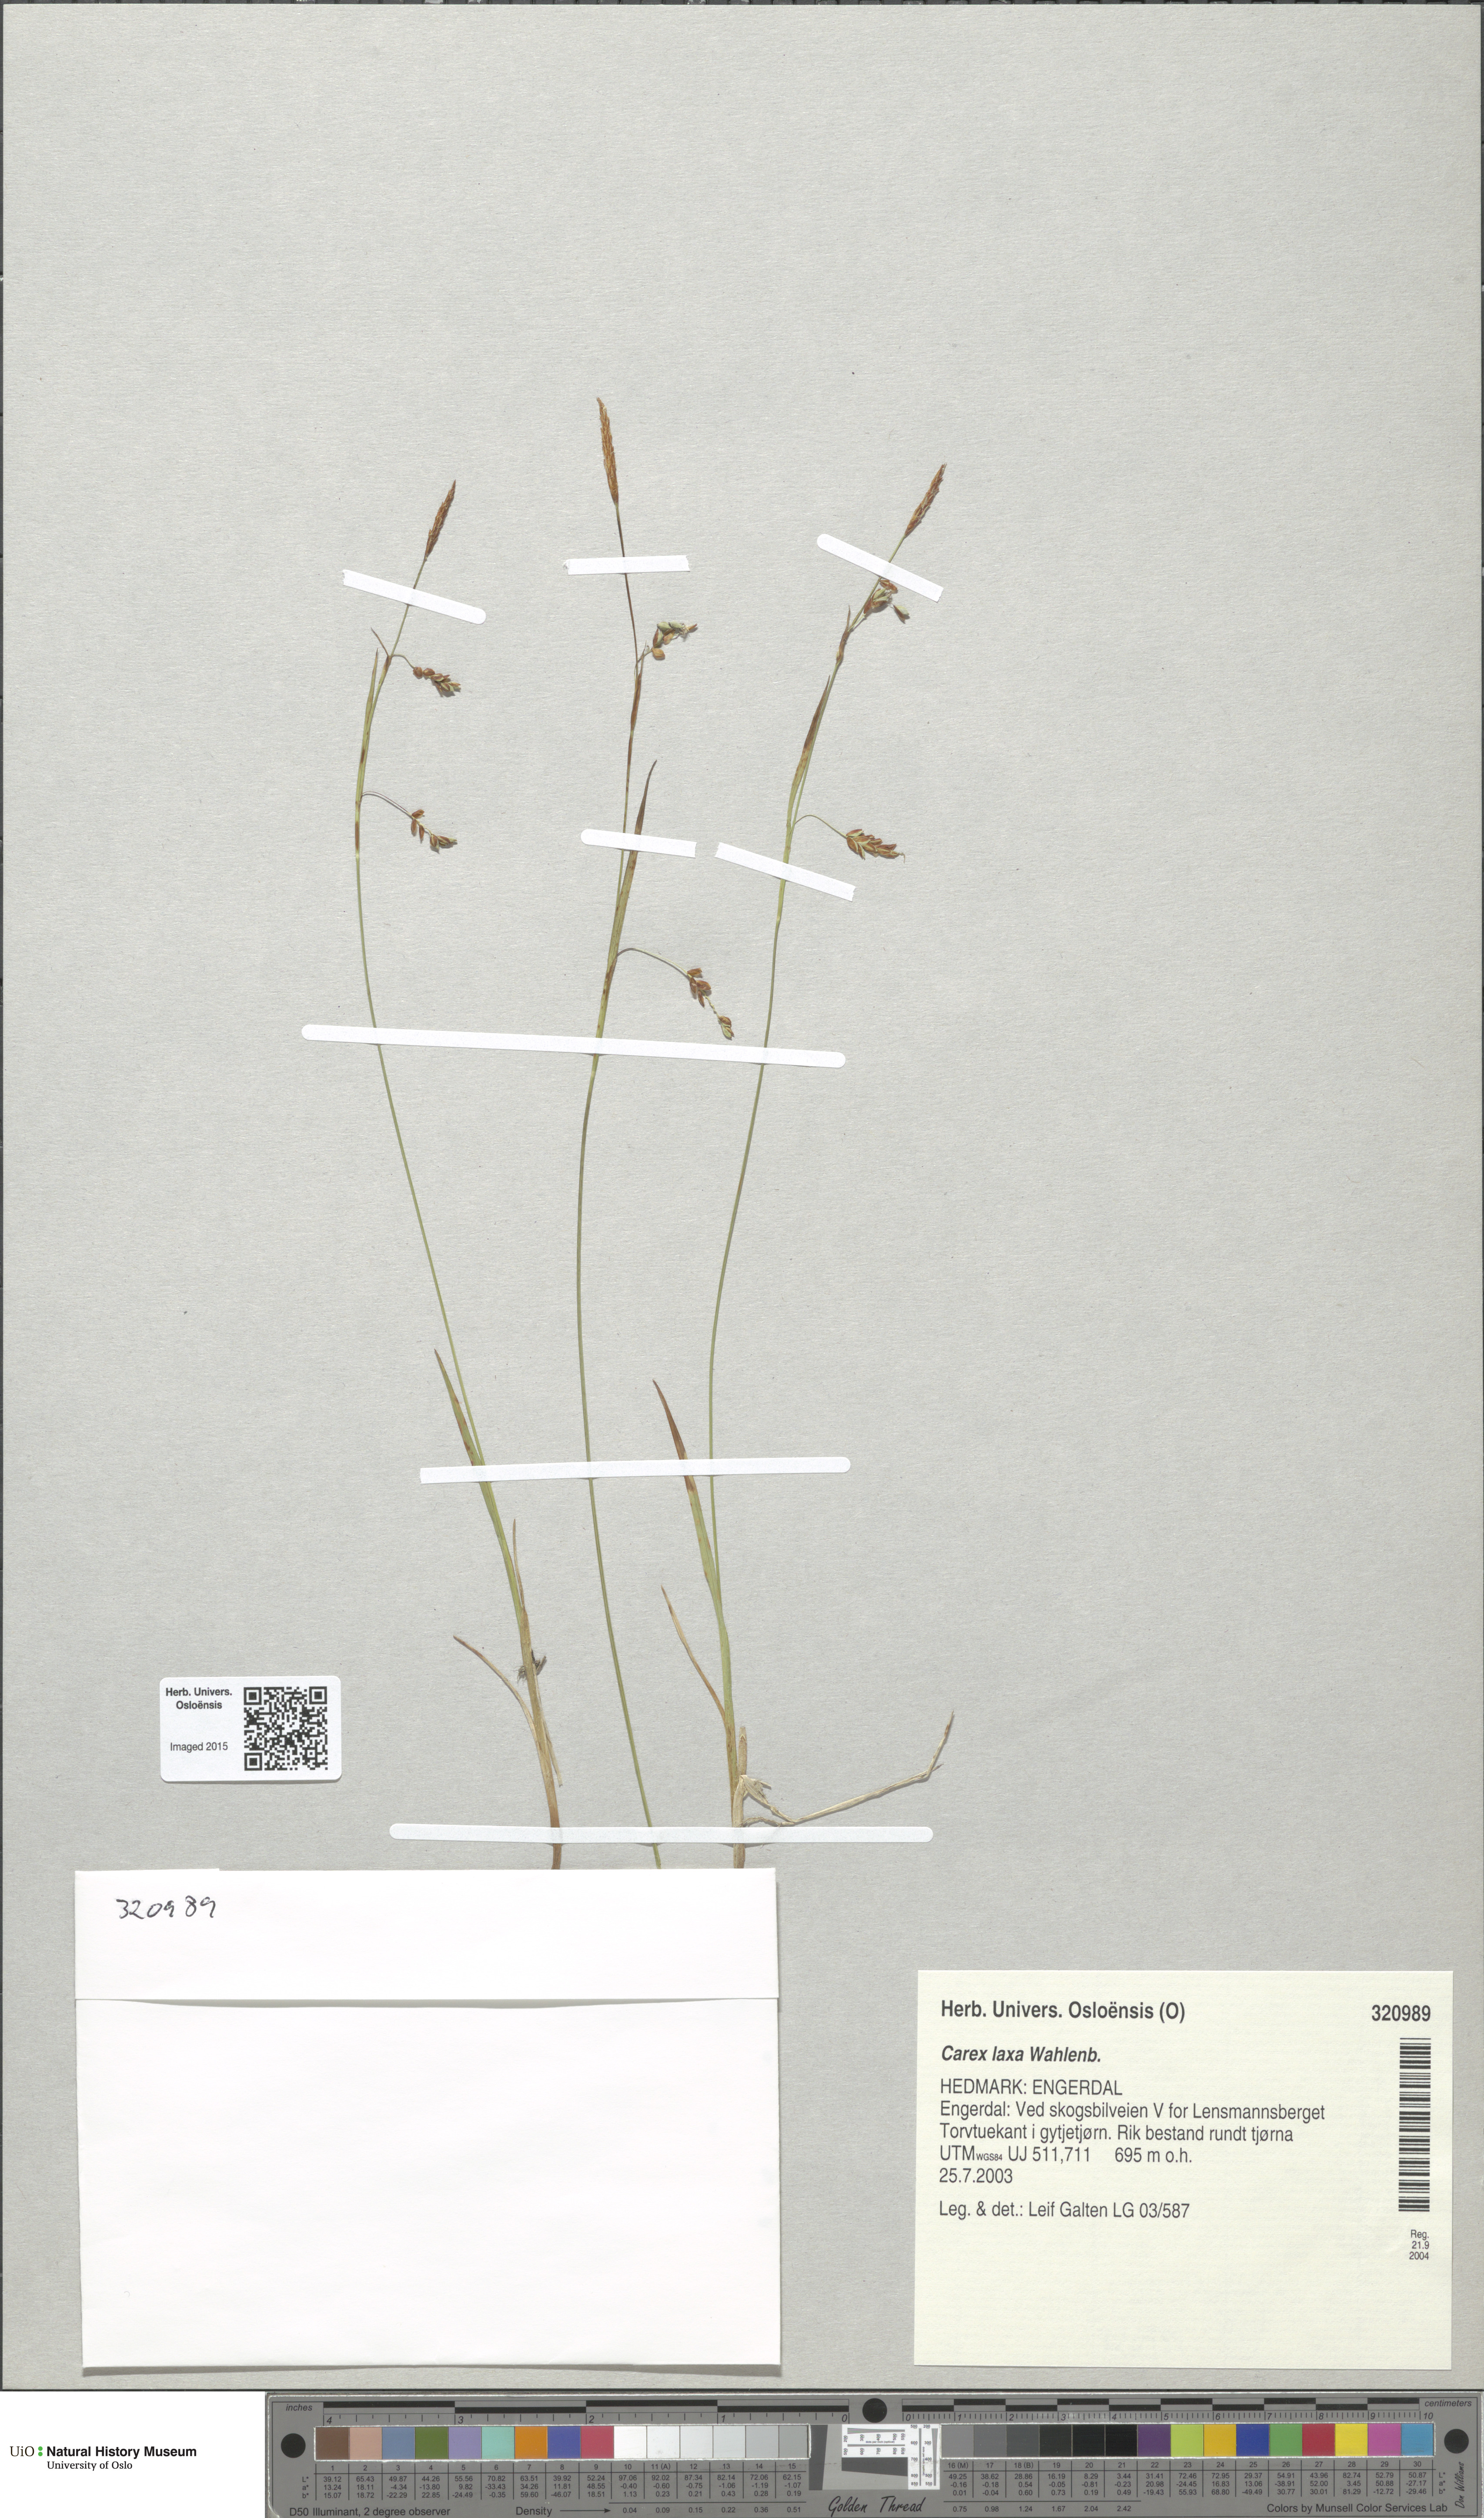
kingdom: Plantae
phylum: Tracheophyta
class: Liliopsida
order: Poales
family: Cyperaceae
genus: Carex
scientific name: Carex laxa
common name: Weak sedge
